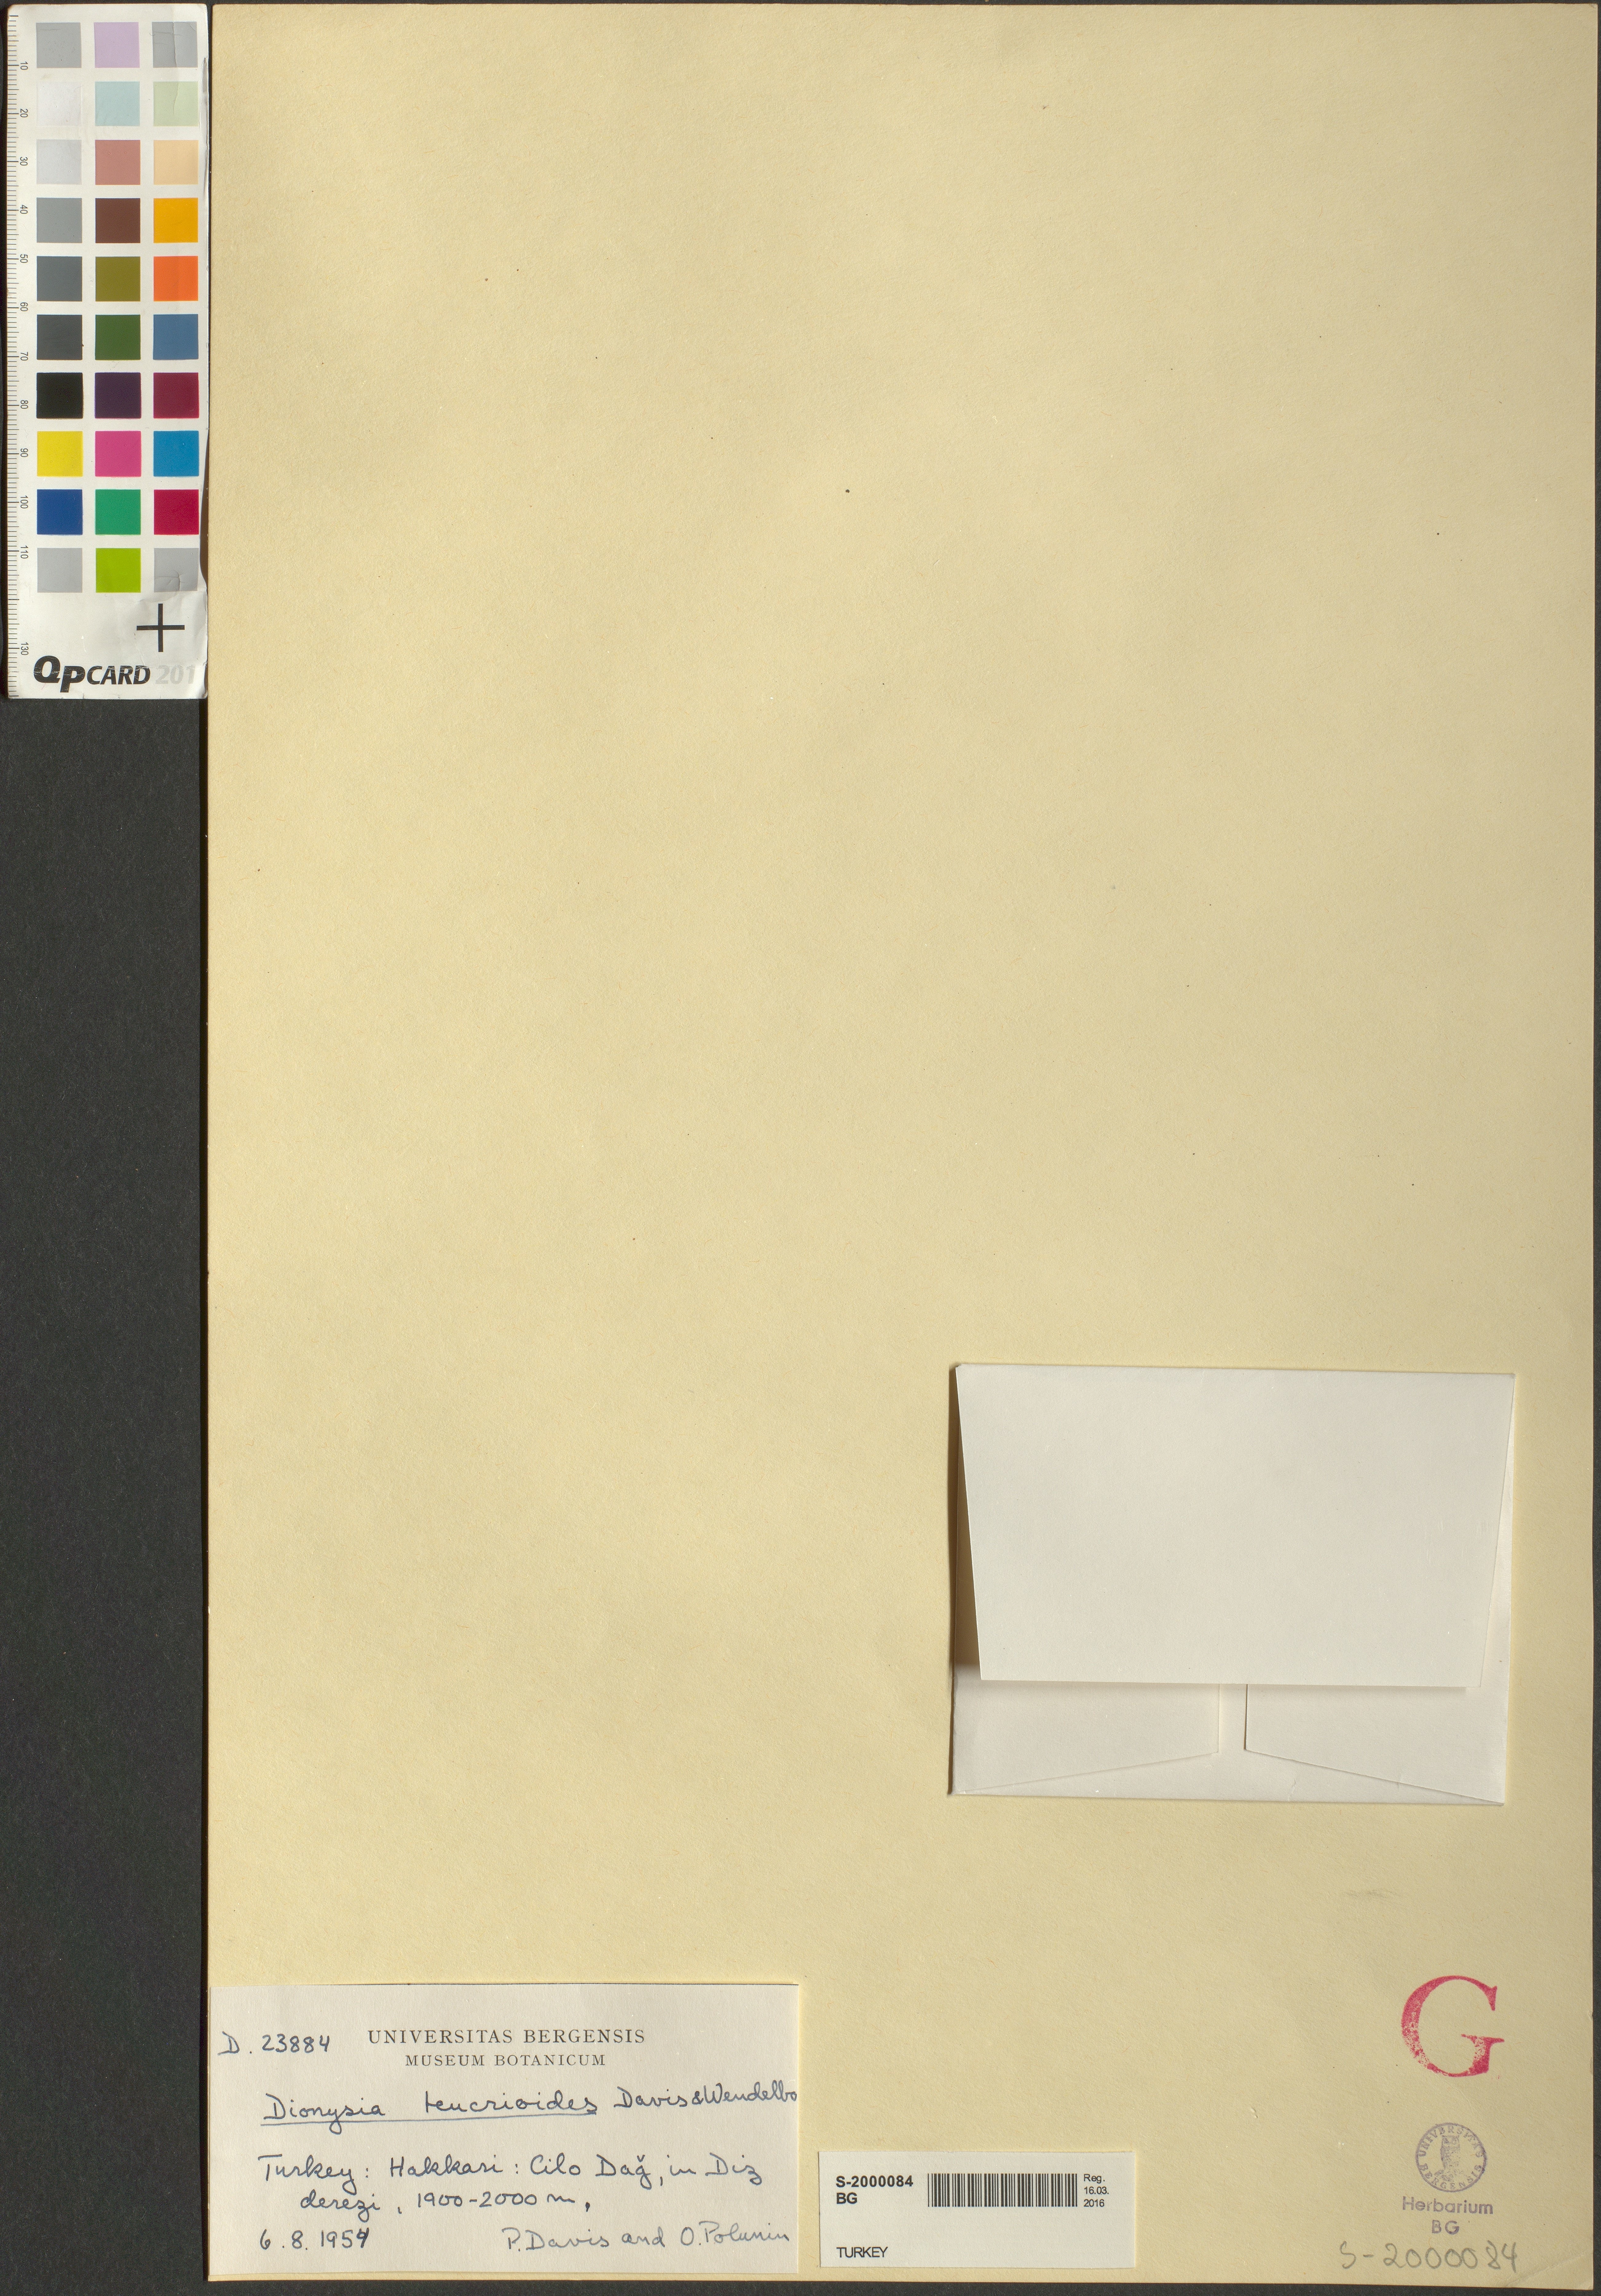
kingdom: Plantae
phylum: Tracheophyta
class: Magnoliopsida
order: Ericales
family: Primulaceae
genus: Dionysia
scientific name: Dionysia teucrioides
